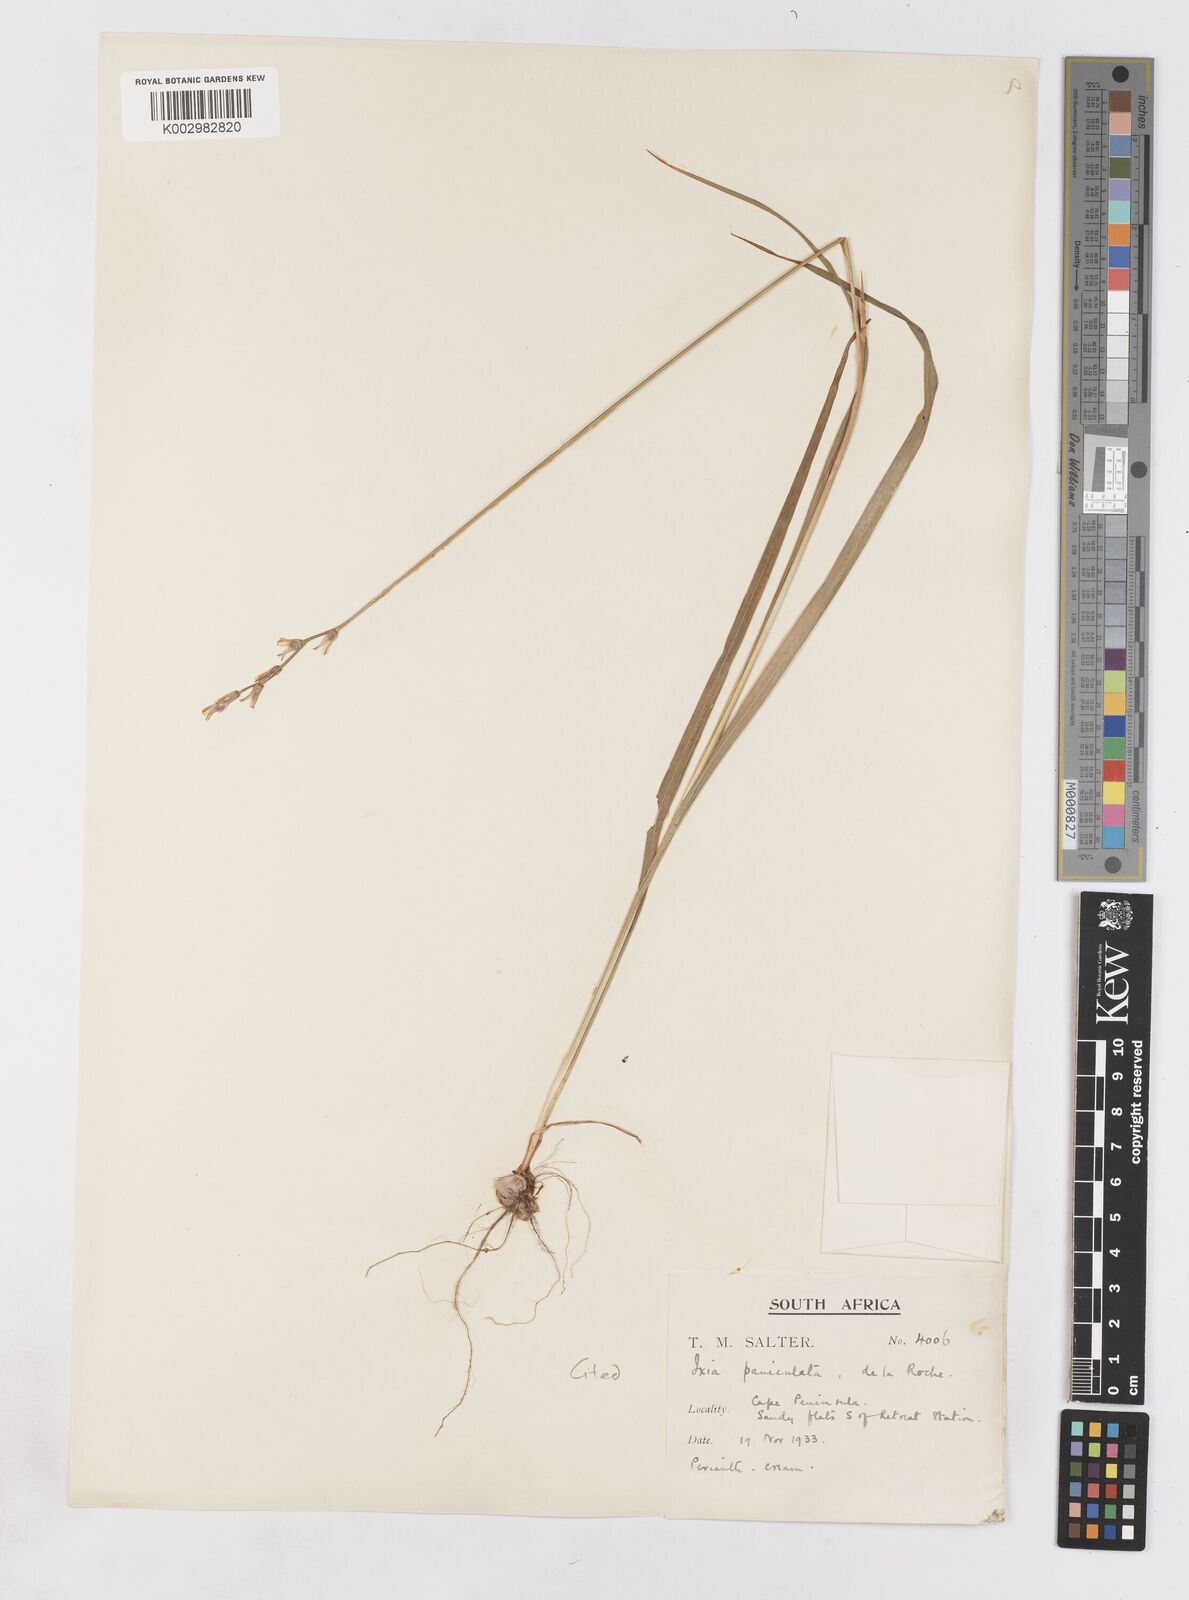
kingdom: Plantae
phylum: Tracheophyta
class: Liliopsida
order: Asparagales
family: Iridaceae
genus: Ixia
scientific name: Ixia paniculata
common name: Tubular corn-lily
